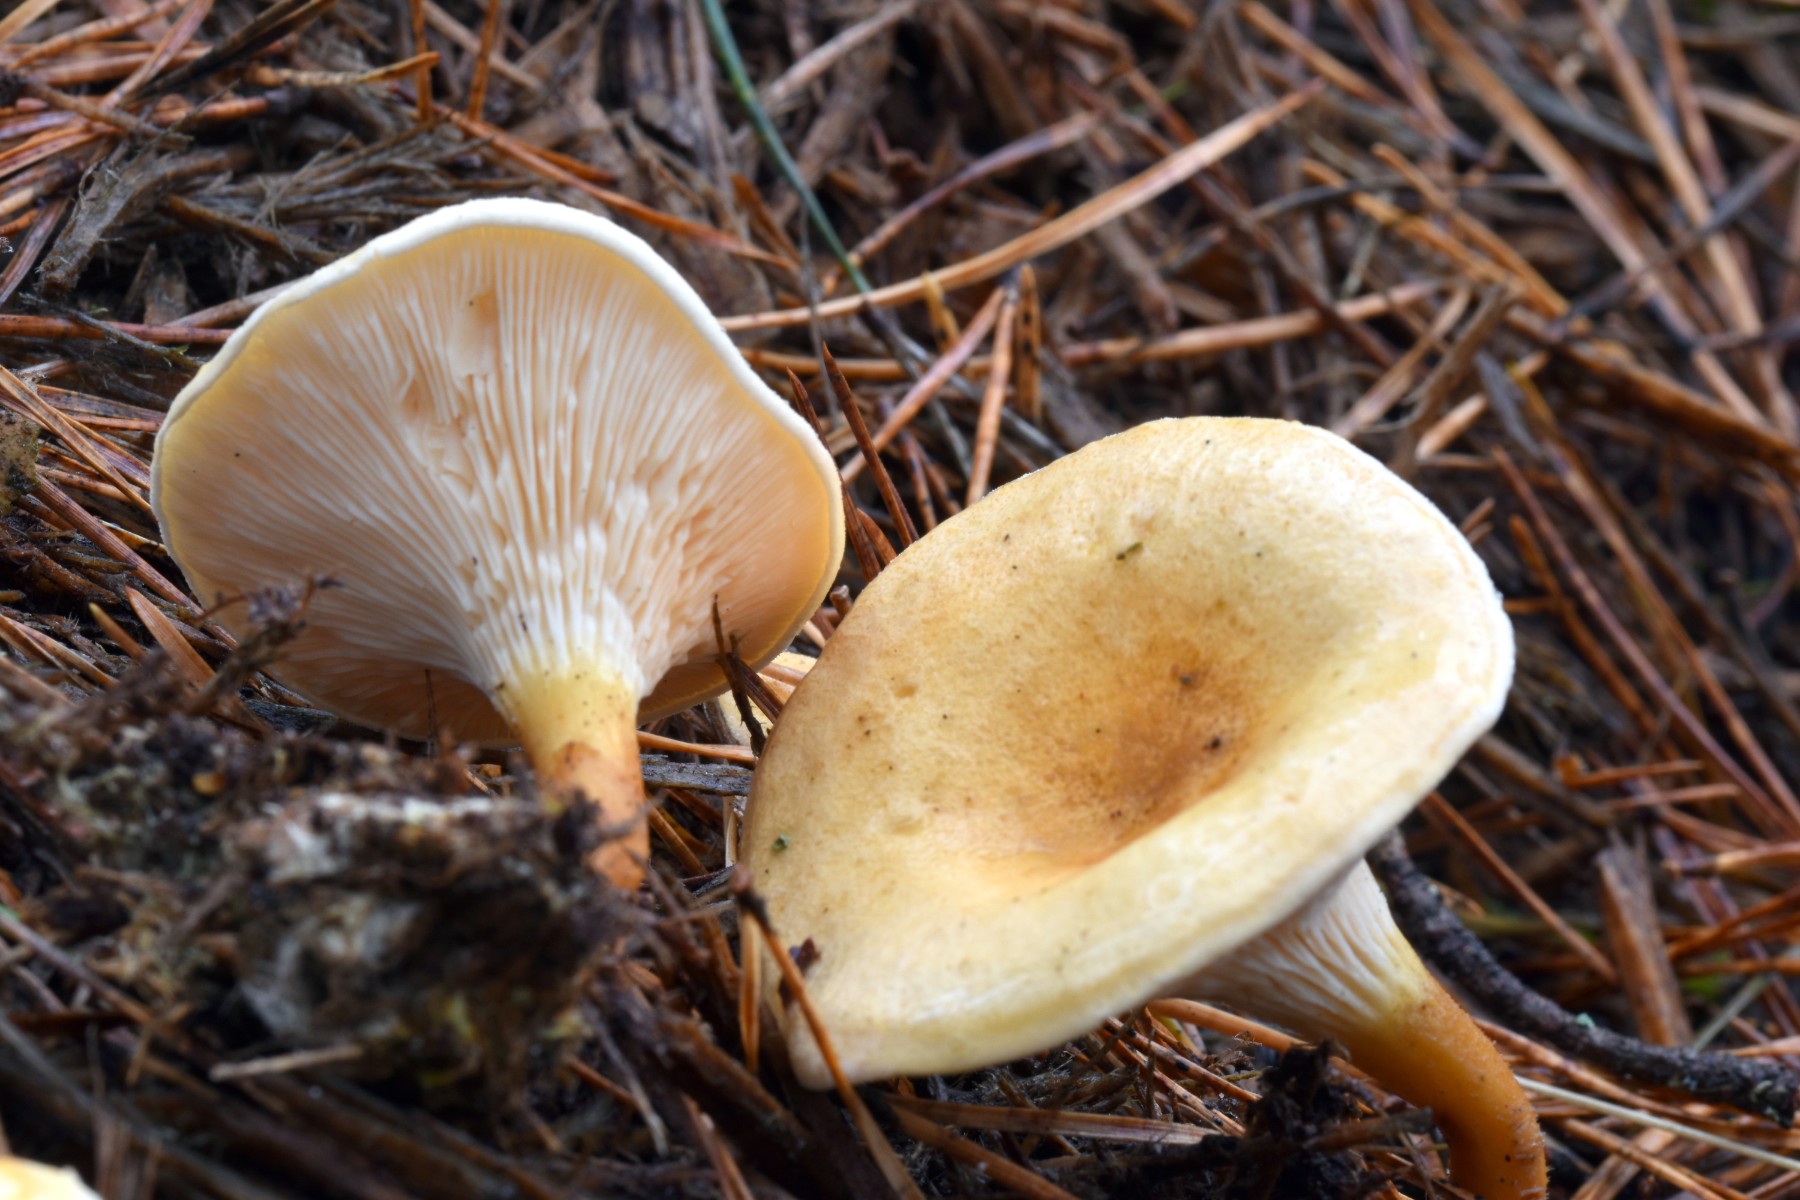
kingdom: Fungi
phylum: Basidiomycota
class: Agaricomycetes
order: Boletales
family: Hygrophoropsidaceae
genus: Hygrophoropsis
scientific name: Hygrophoropsis pallida
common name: bleg orangekantarel
